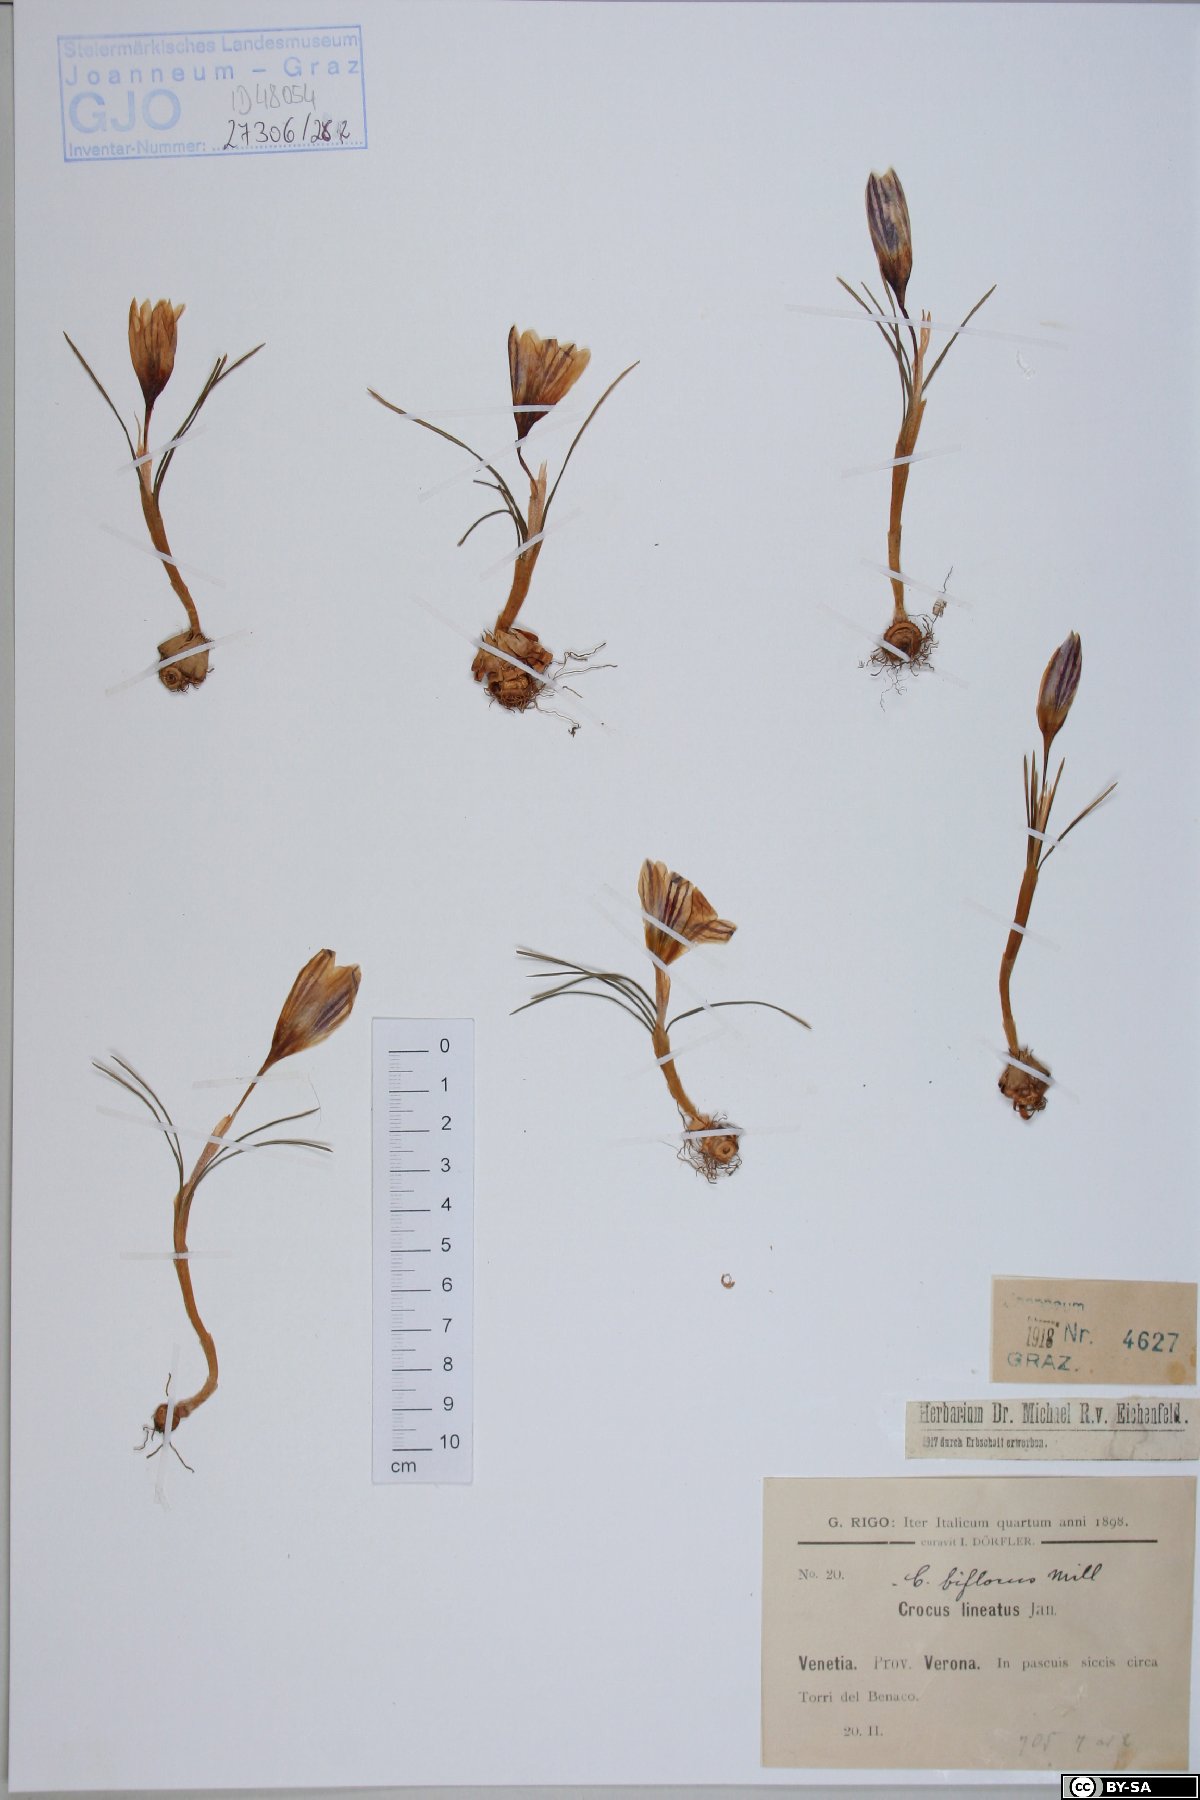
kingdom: Plantae
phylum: Tracheophyta
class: Liliopsida
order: Asparagales
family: Iridaceae
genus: Crocus
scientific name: Crocus biflorus
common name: Silvery crocus
